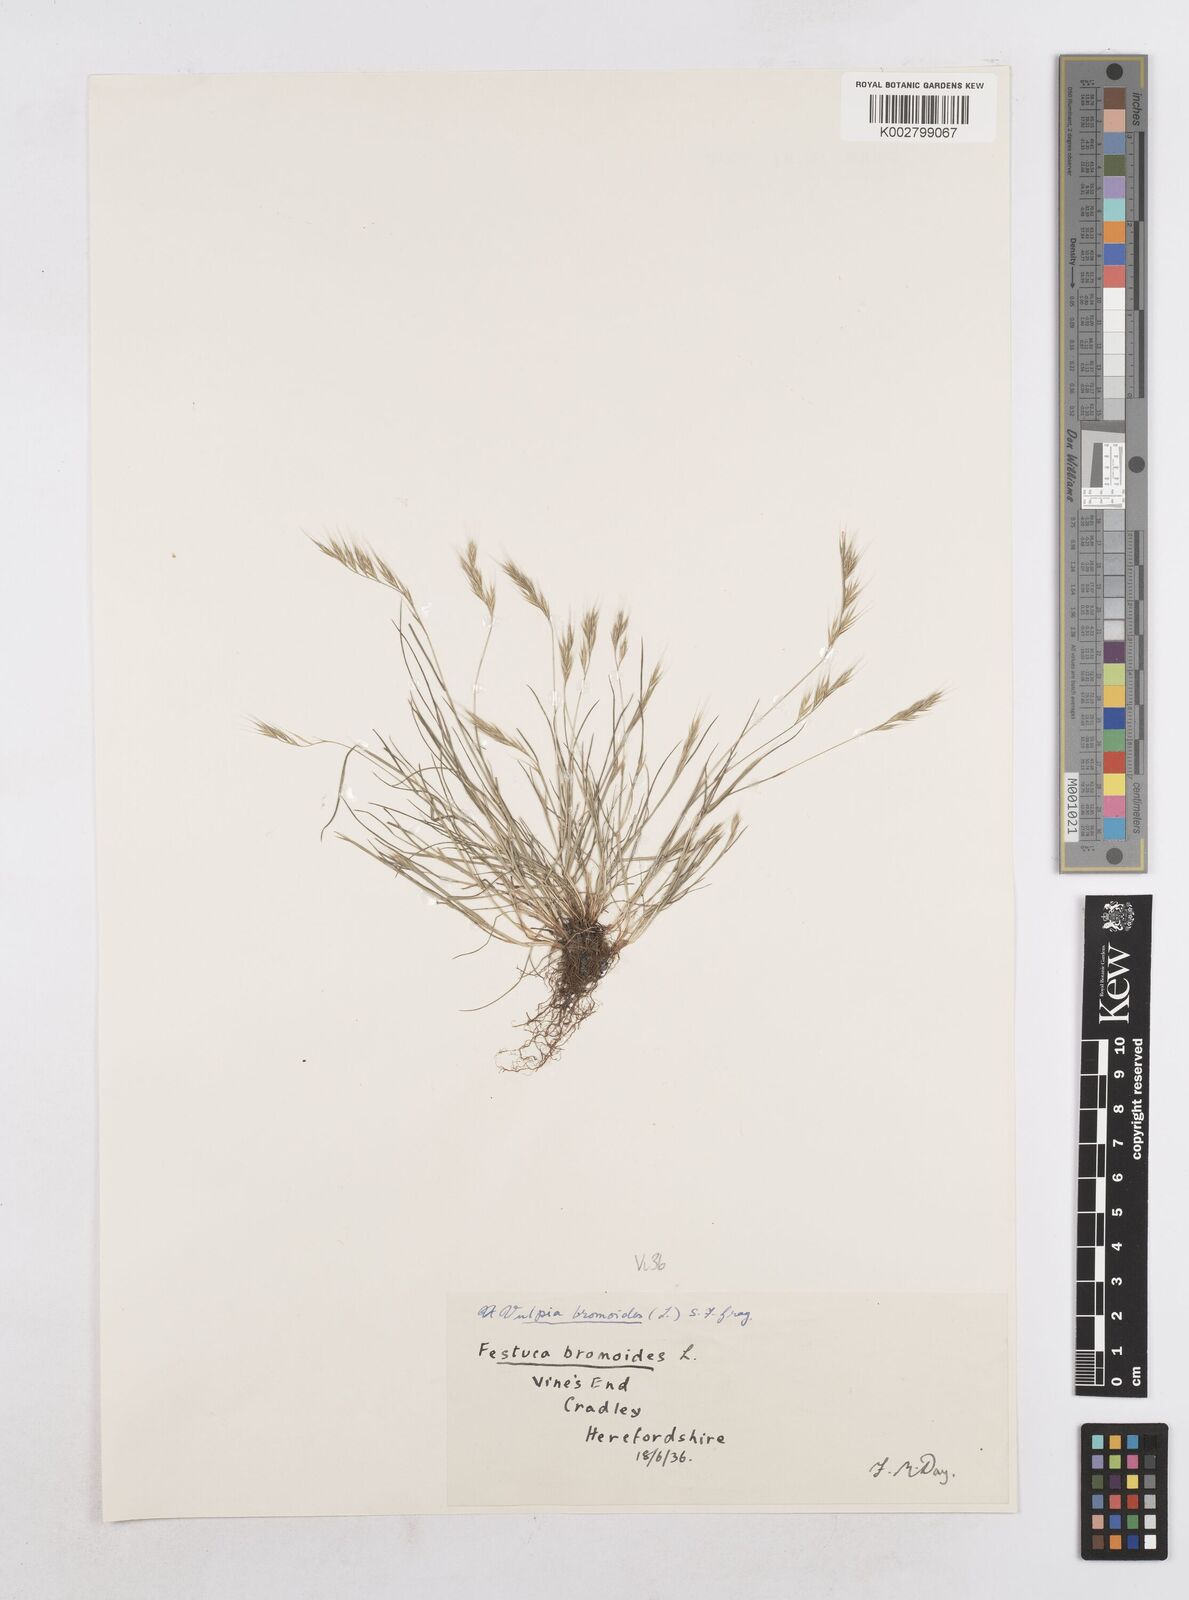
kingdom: Plantae
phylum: Tracheophyta
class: Liliopsida
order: Poales
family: Poaceae
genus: Festuca
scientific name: Festuca bromoides
